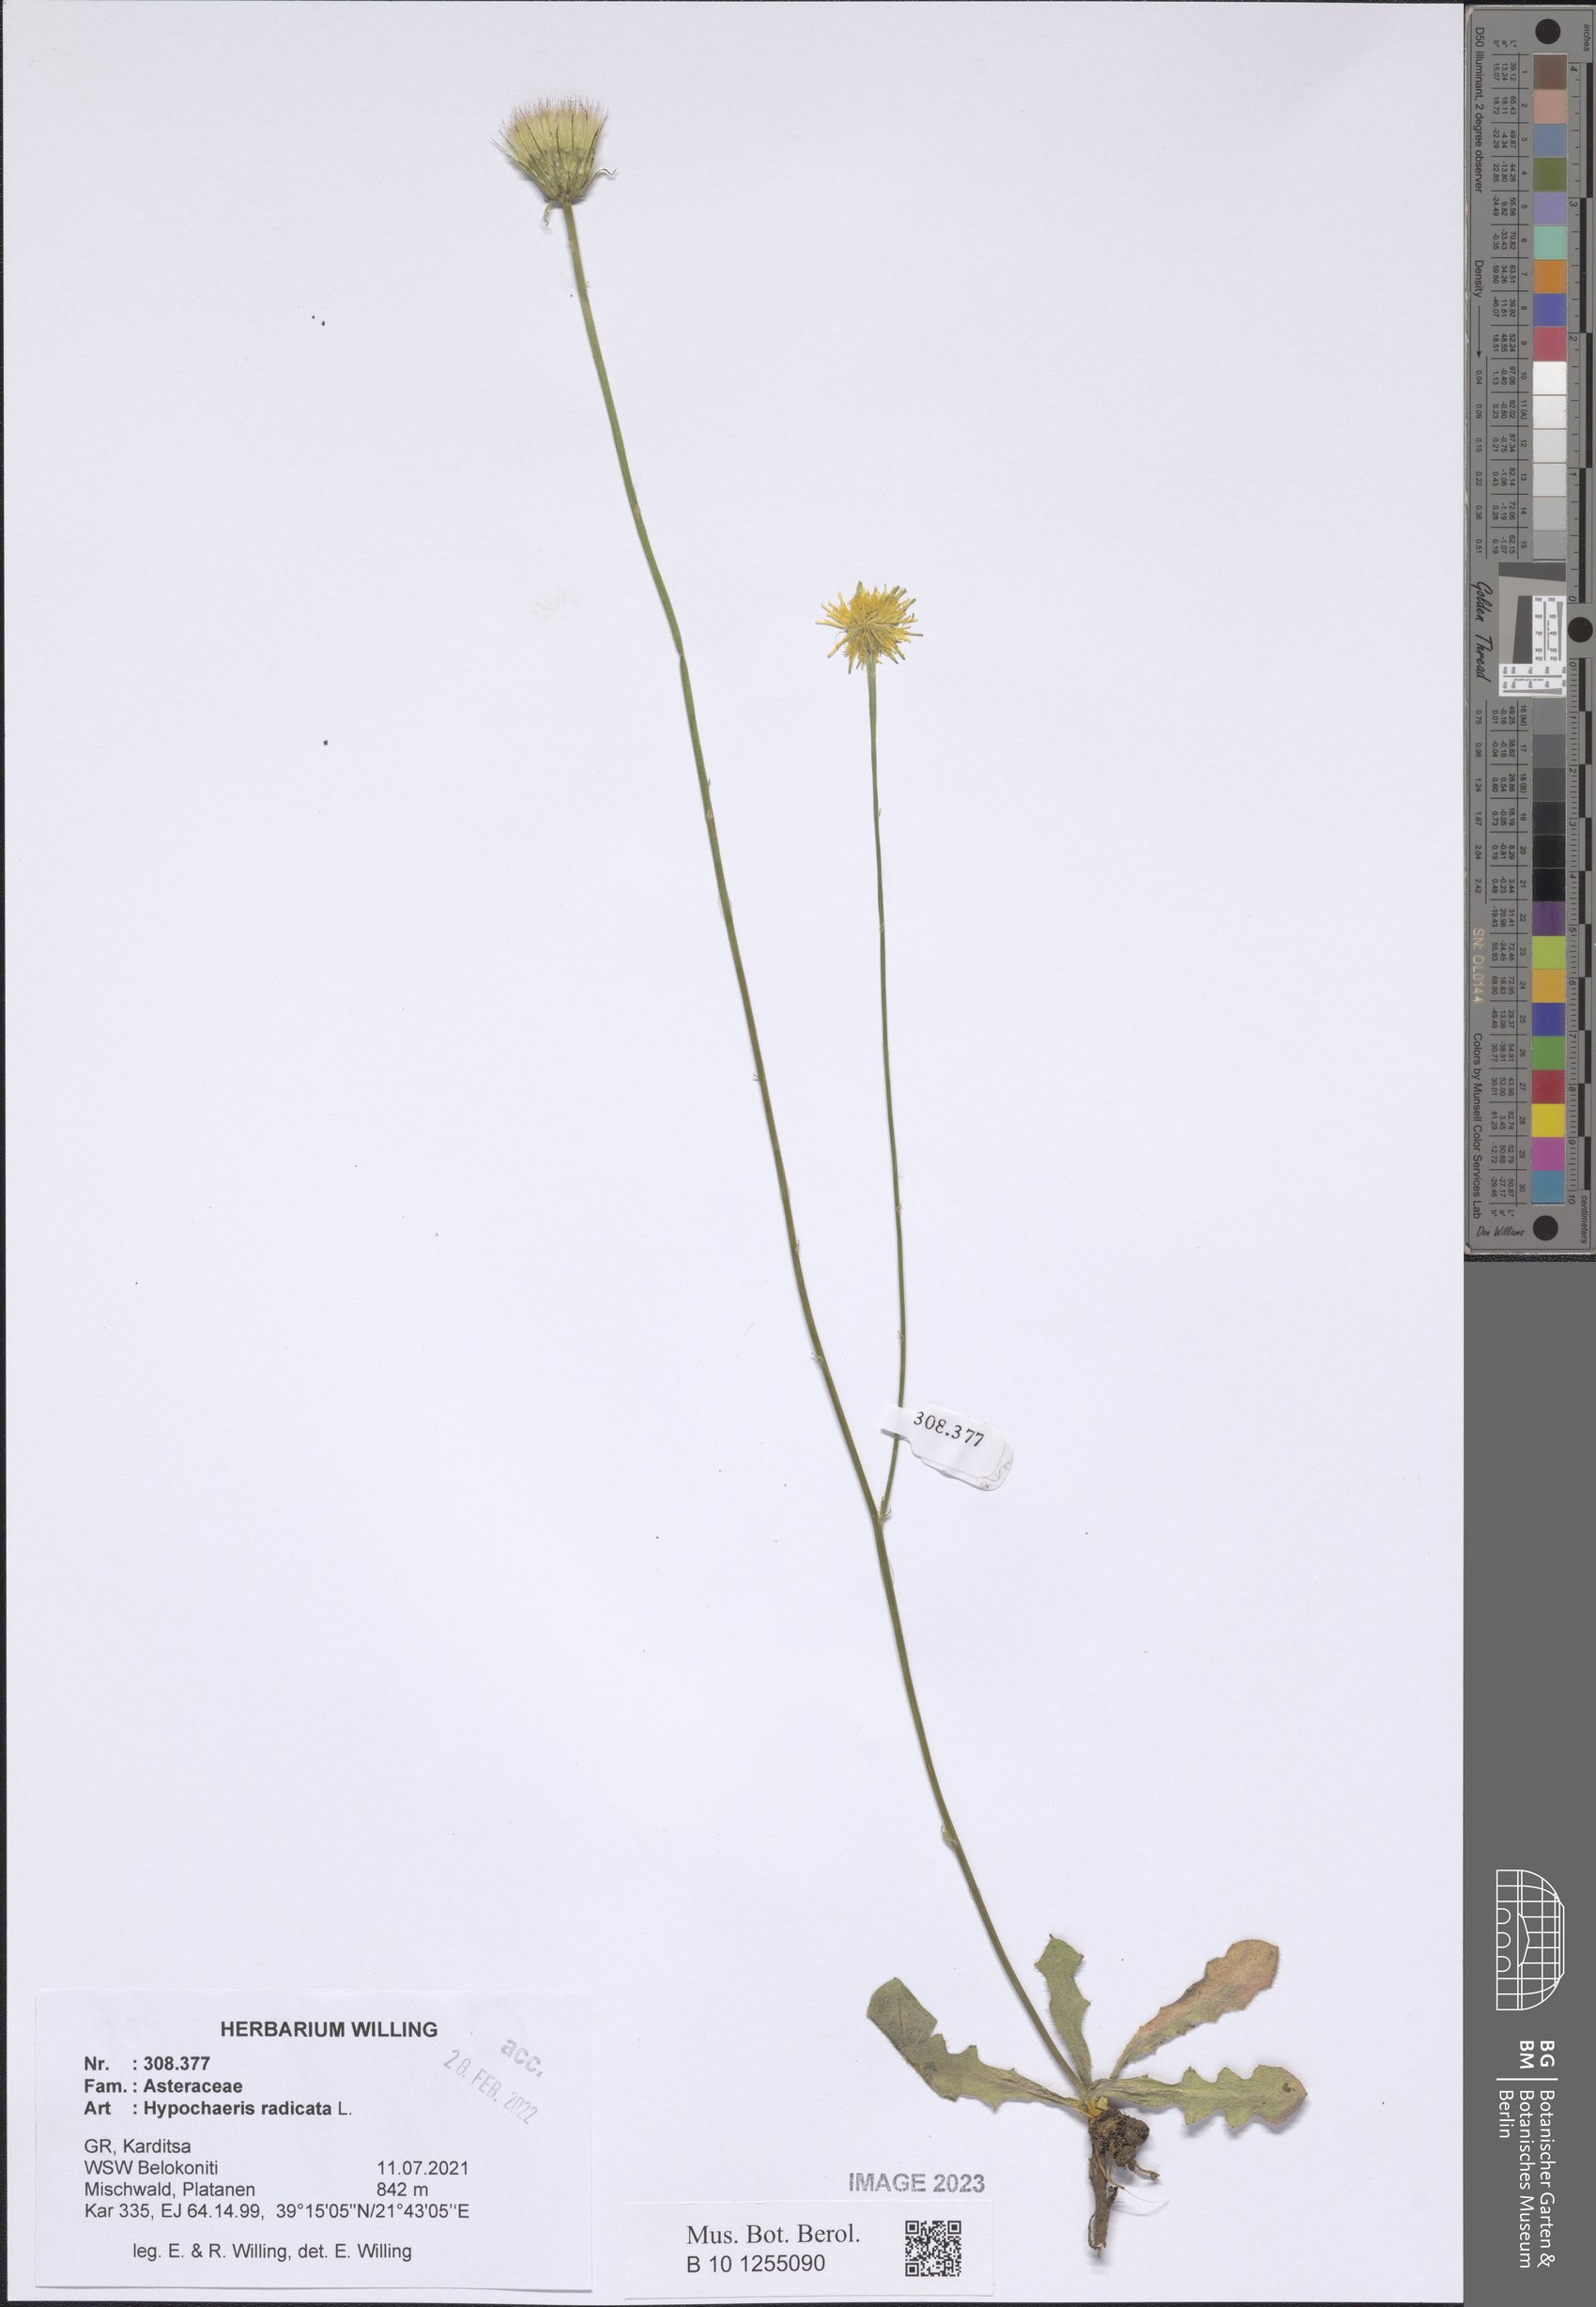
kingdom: Plantae
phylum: Tracheophyta
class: Magnoliopsida
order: Asterales
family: Asteraceae
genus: Hypochaeris
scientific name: Hypochaeris radicata
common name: Flatweed
